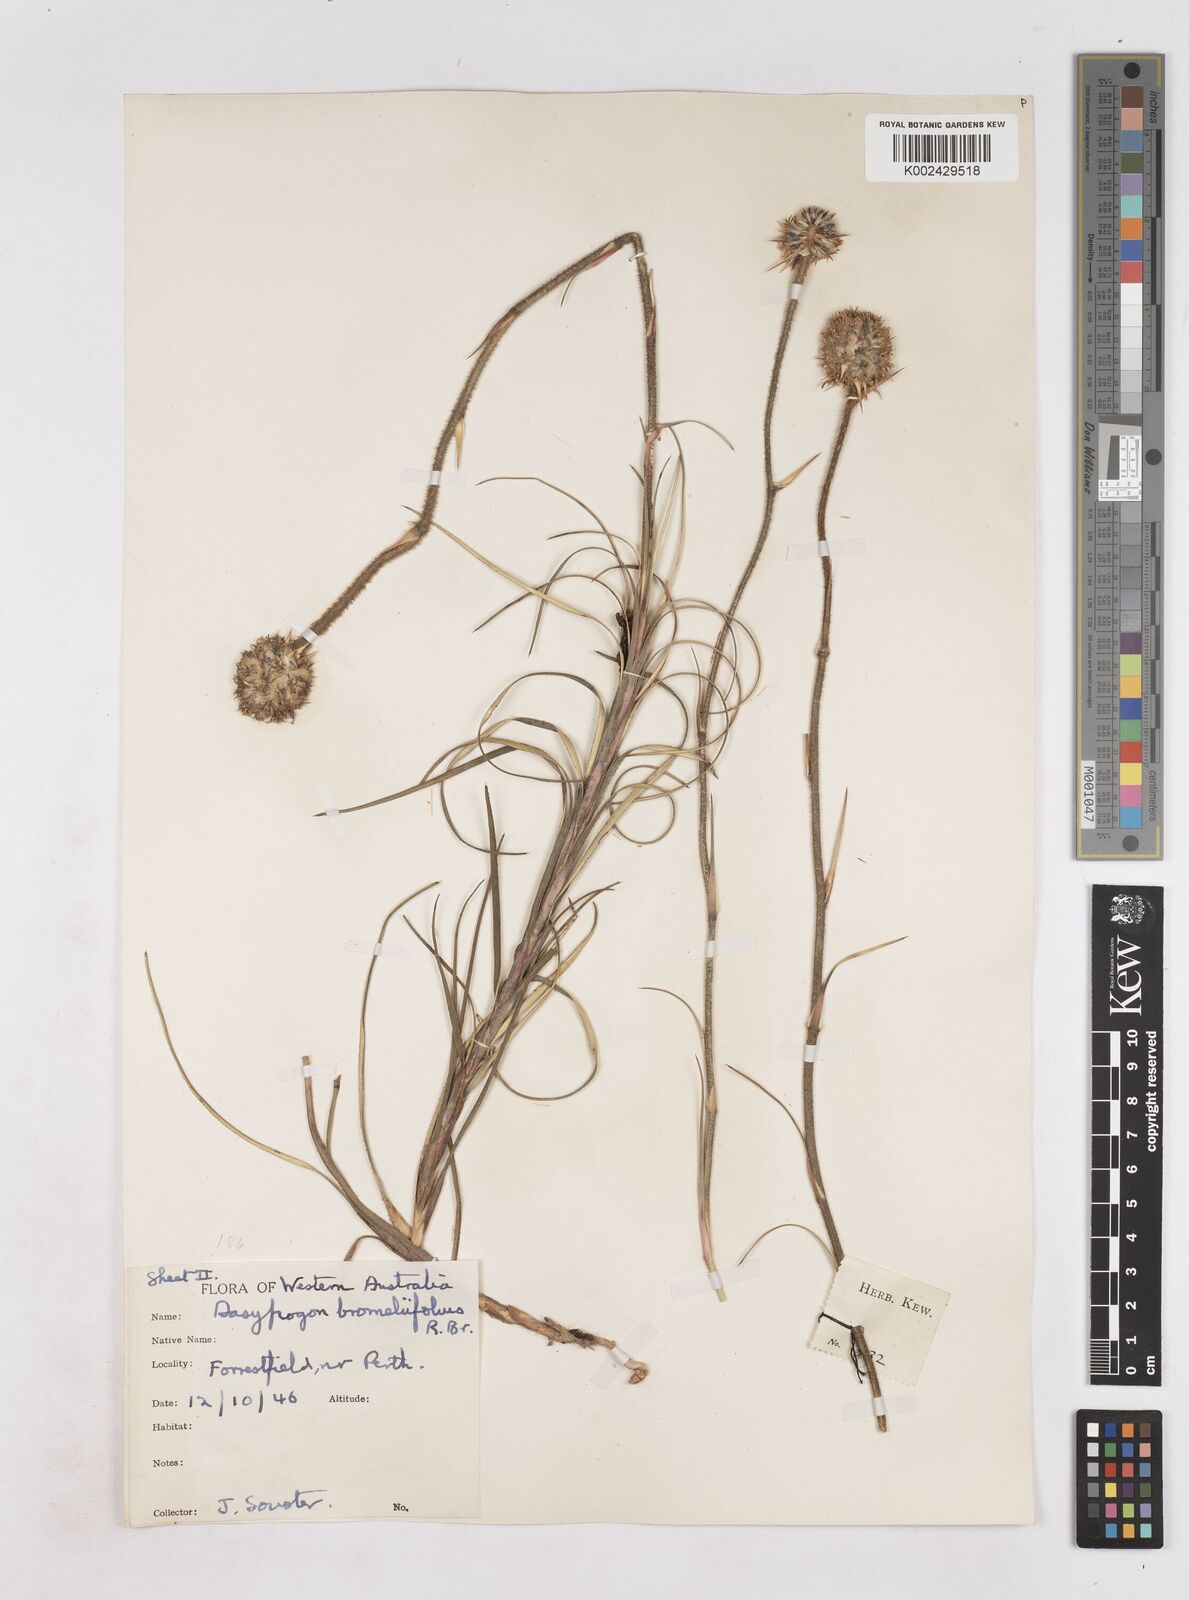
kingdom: Plantae
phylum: Tracheophyta
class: Liliopsida
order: Arecales
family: Dasypogonaceae
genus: Dasypogon
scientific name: Dasypogon bromeliifolius
